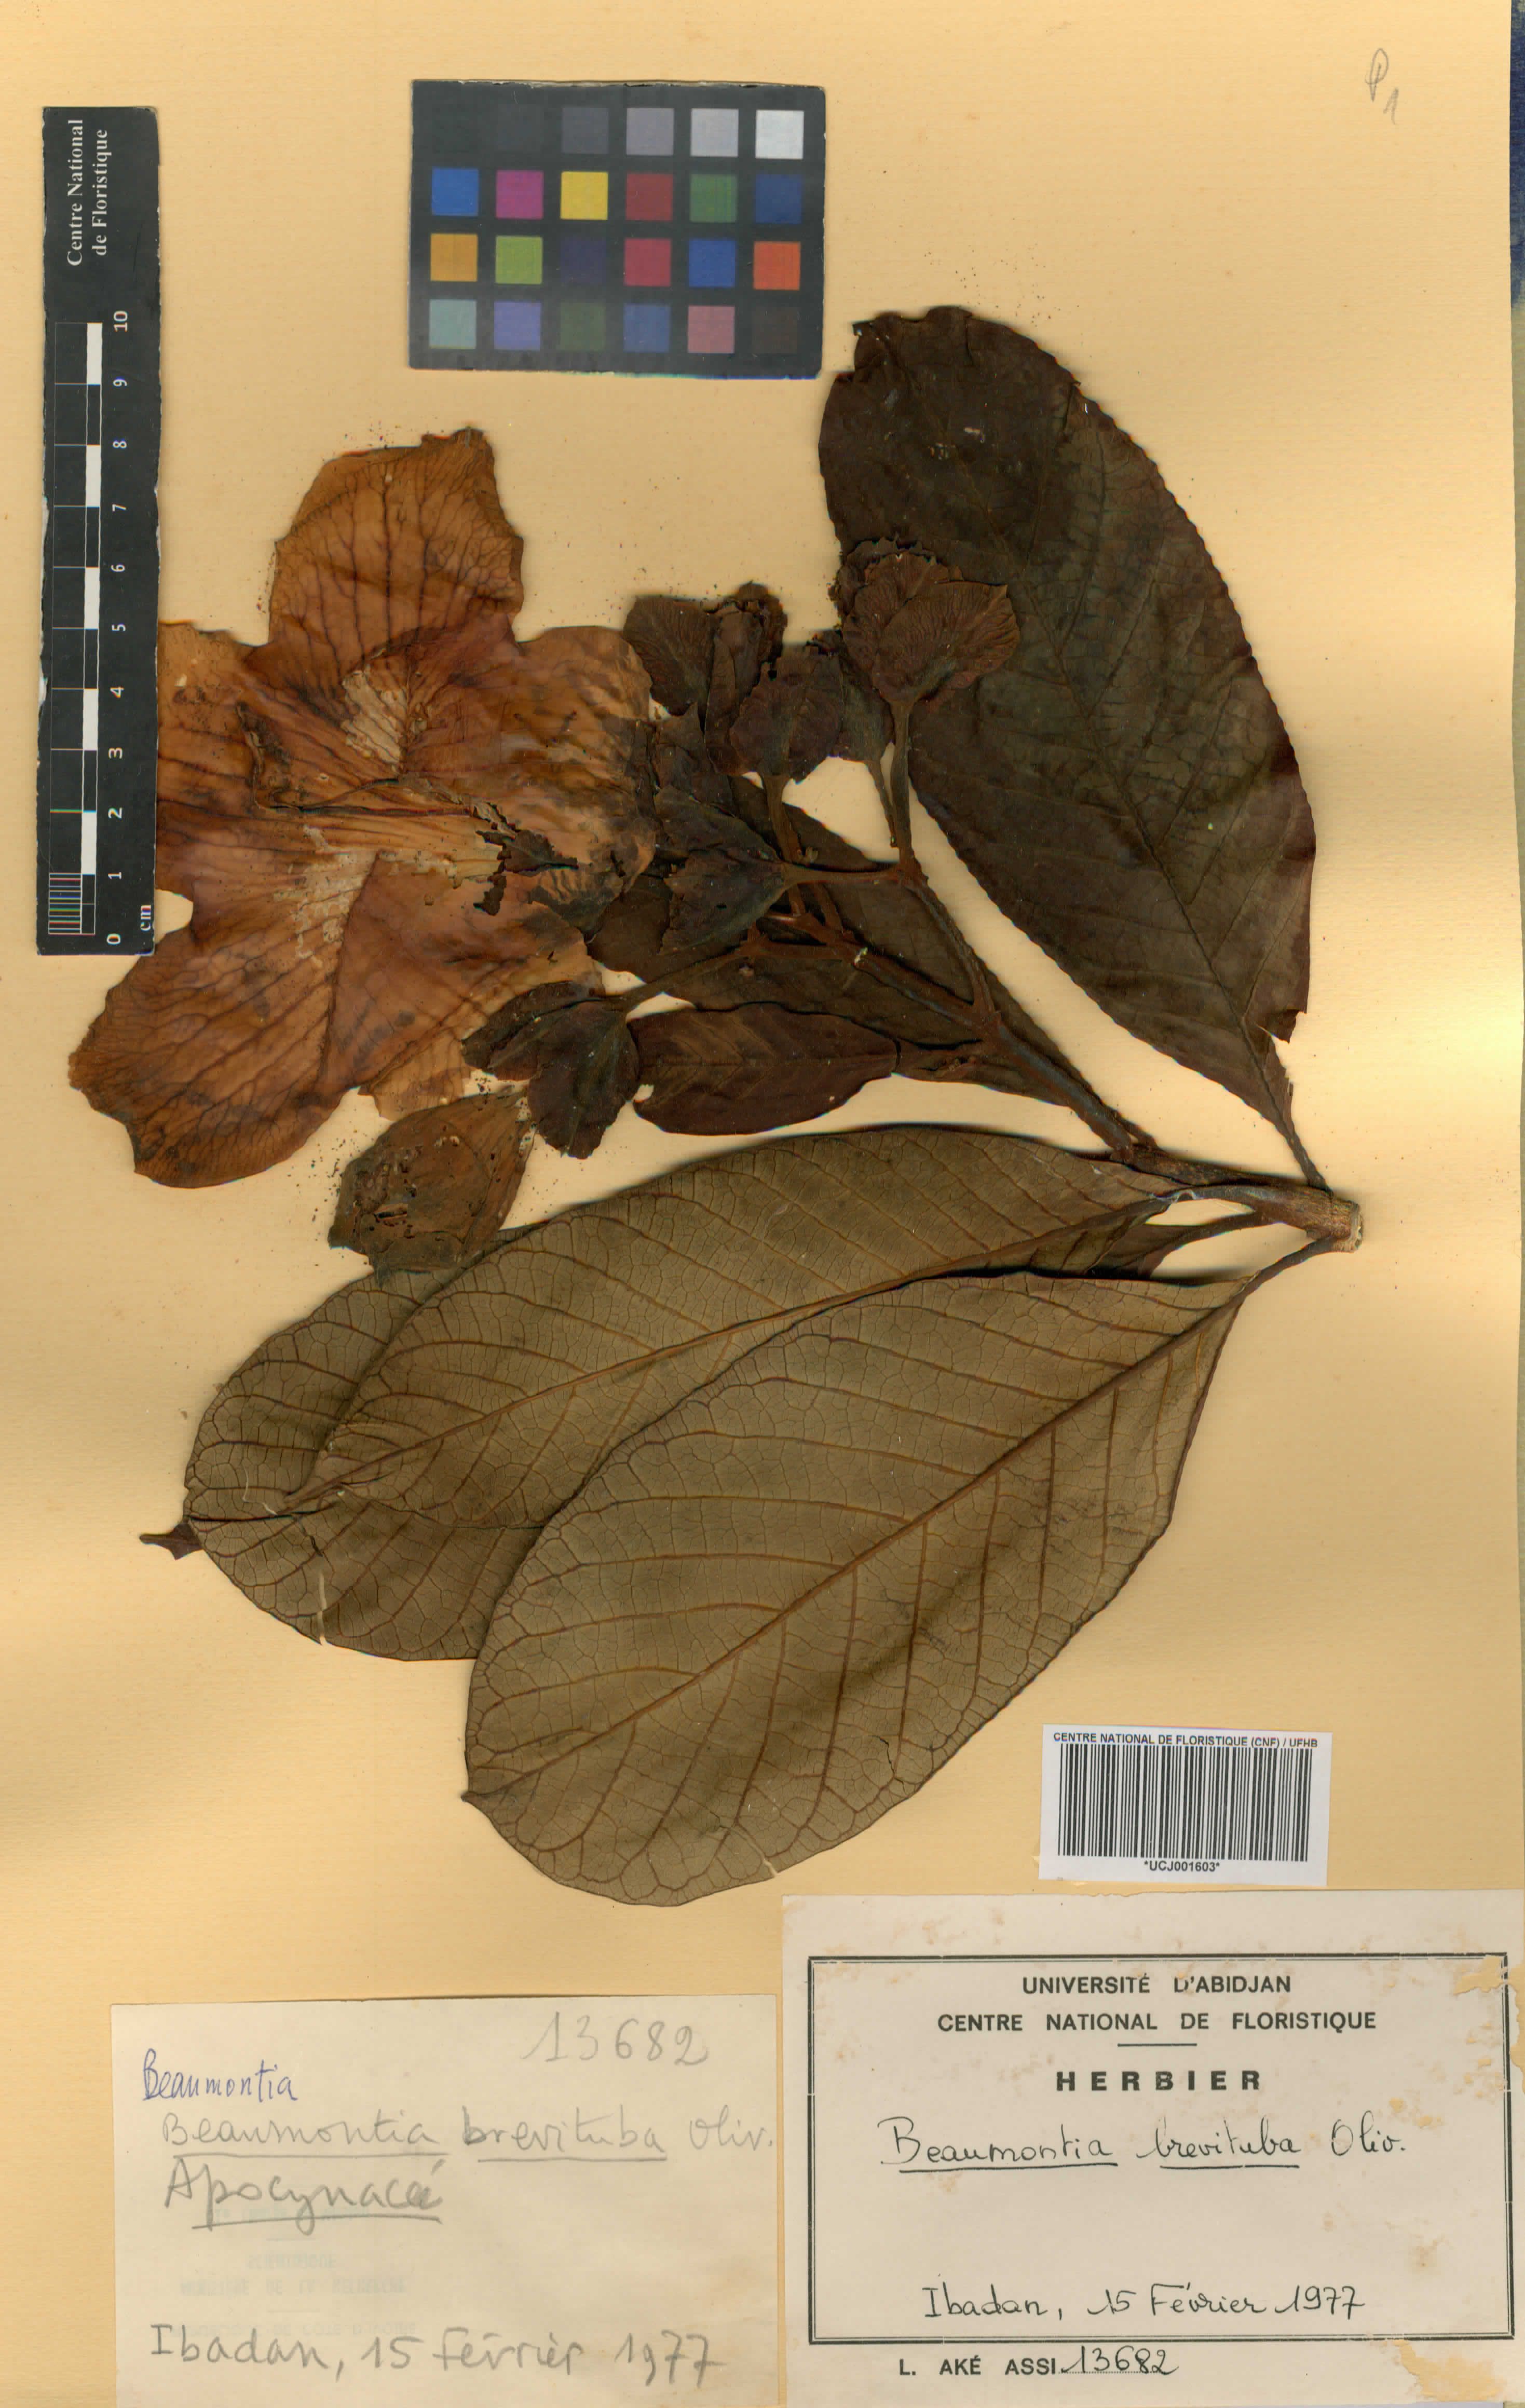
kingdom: Plantae
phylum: Tracheophyta
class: Magnoliopsida
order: Gentianales
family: Apocynaceae
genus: Beaumontia
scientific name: Beaumontia brevituba
